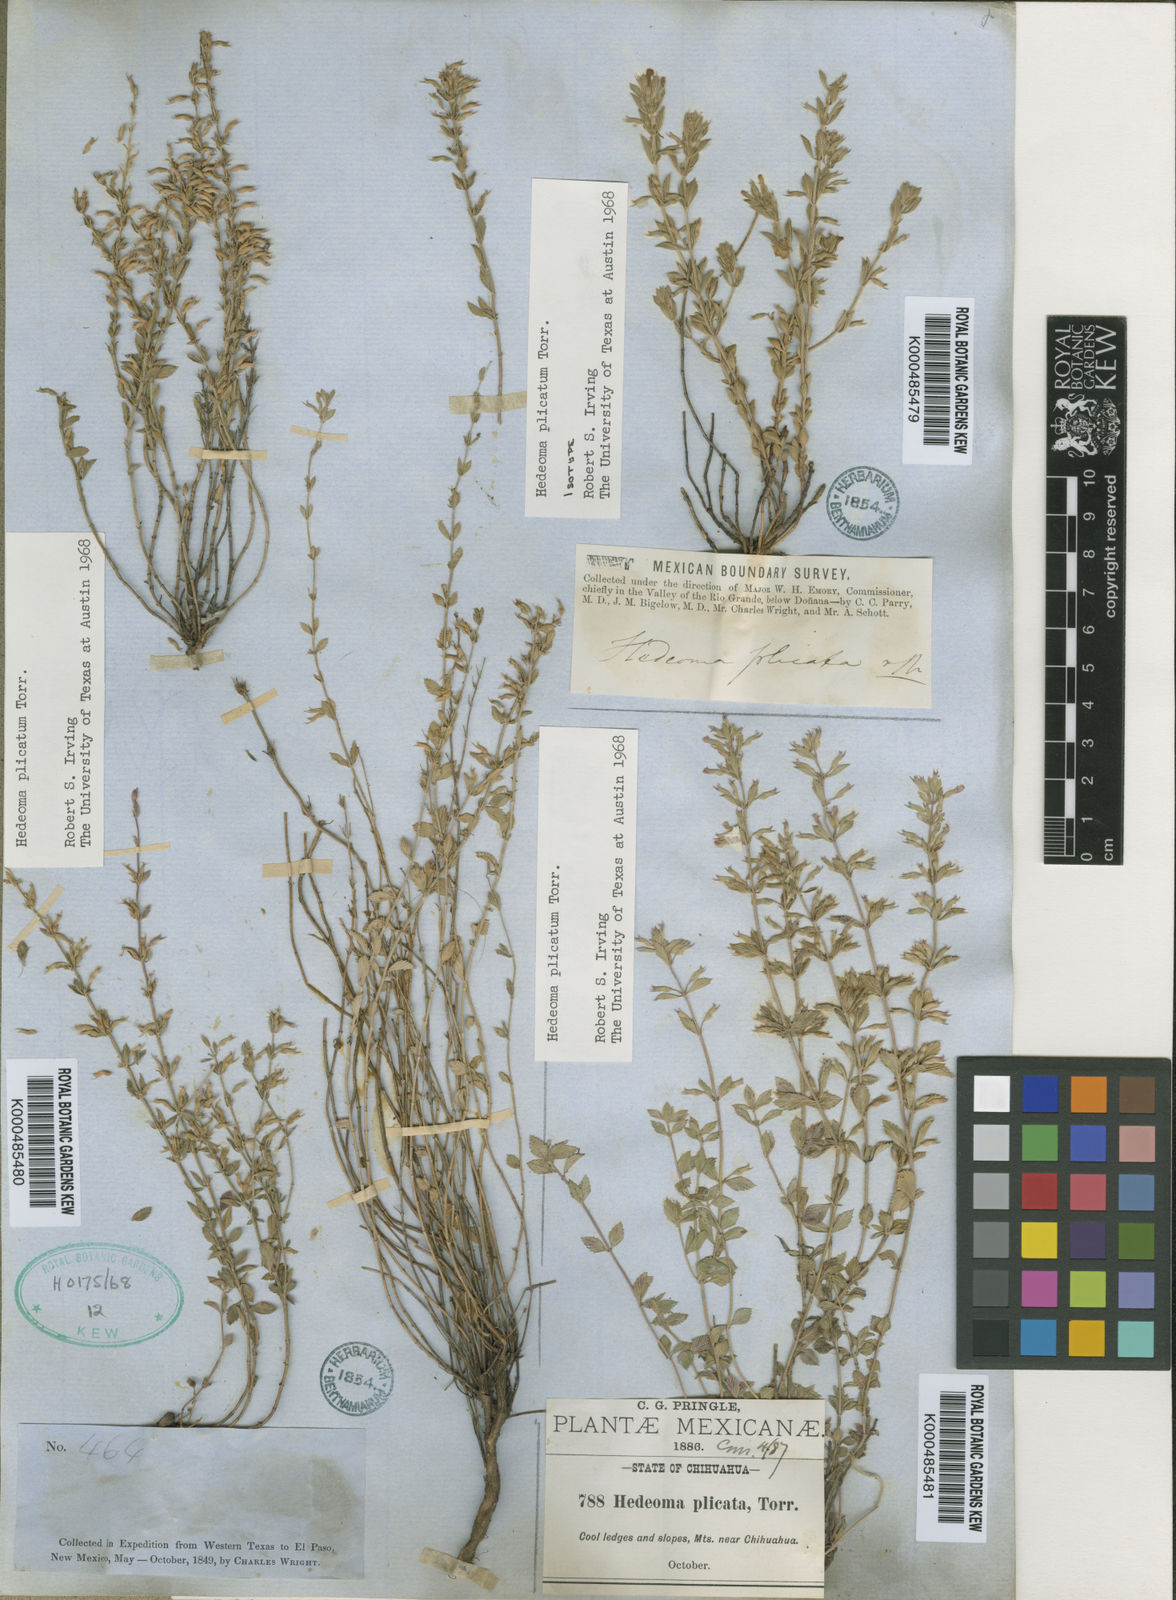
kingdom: Plantae
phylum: Tracheophyta
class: Magnoliopsida
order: Lamiales
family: Lamiaceae
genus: Hedeoma
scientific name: Hedeoma plicata
